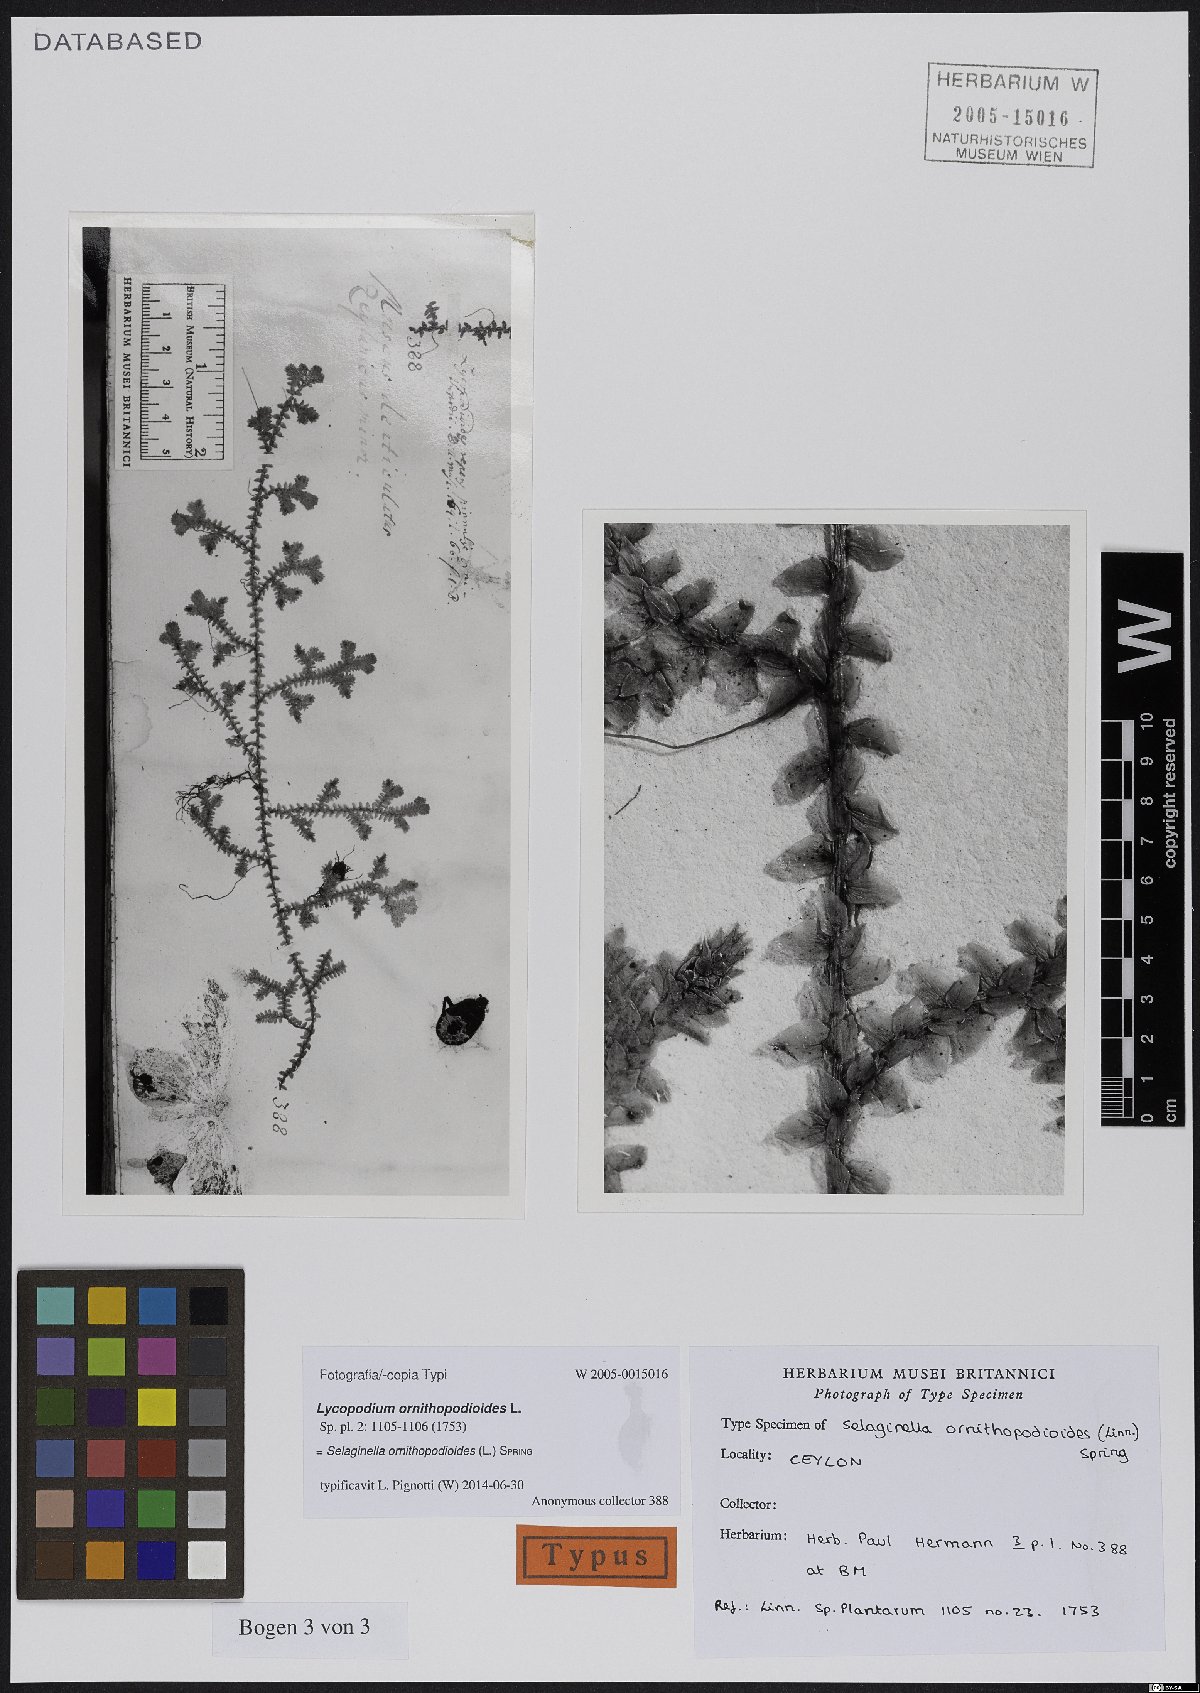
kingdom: Plantae
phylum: Tracheophyta
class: Lycopodiopsida
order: Selaginellales
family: Selaginellaceae
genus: Selaginella
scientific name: Selaginella ornithopodioides
